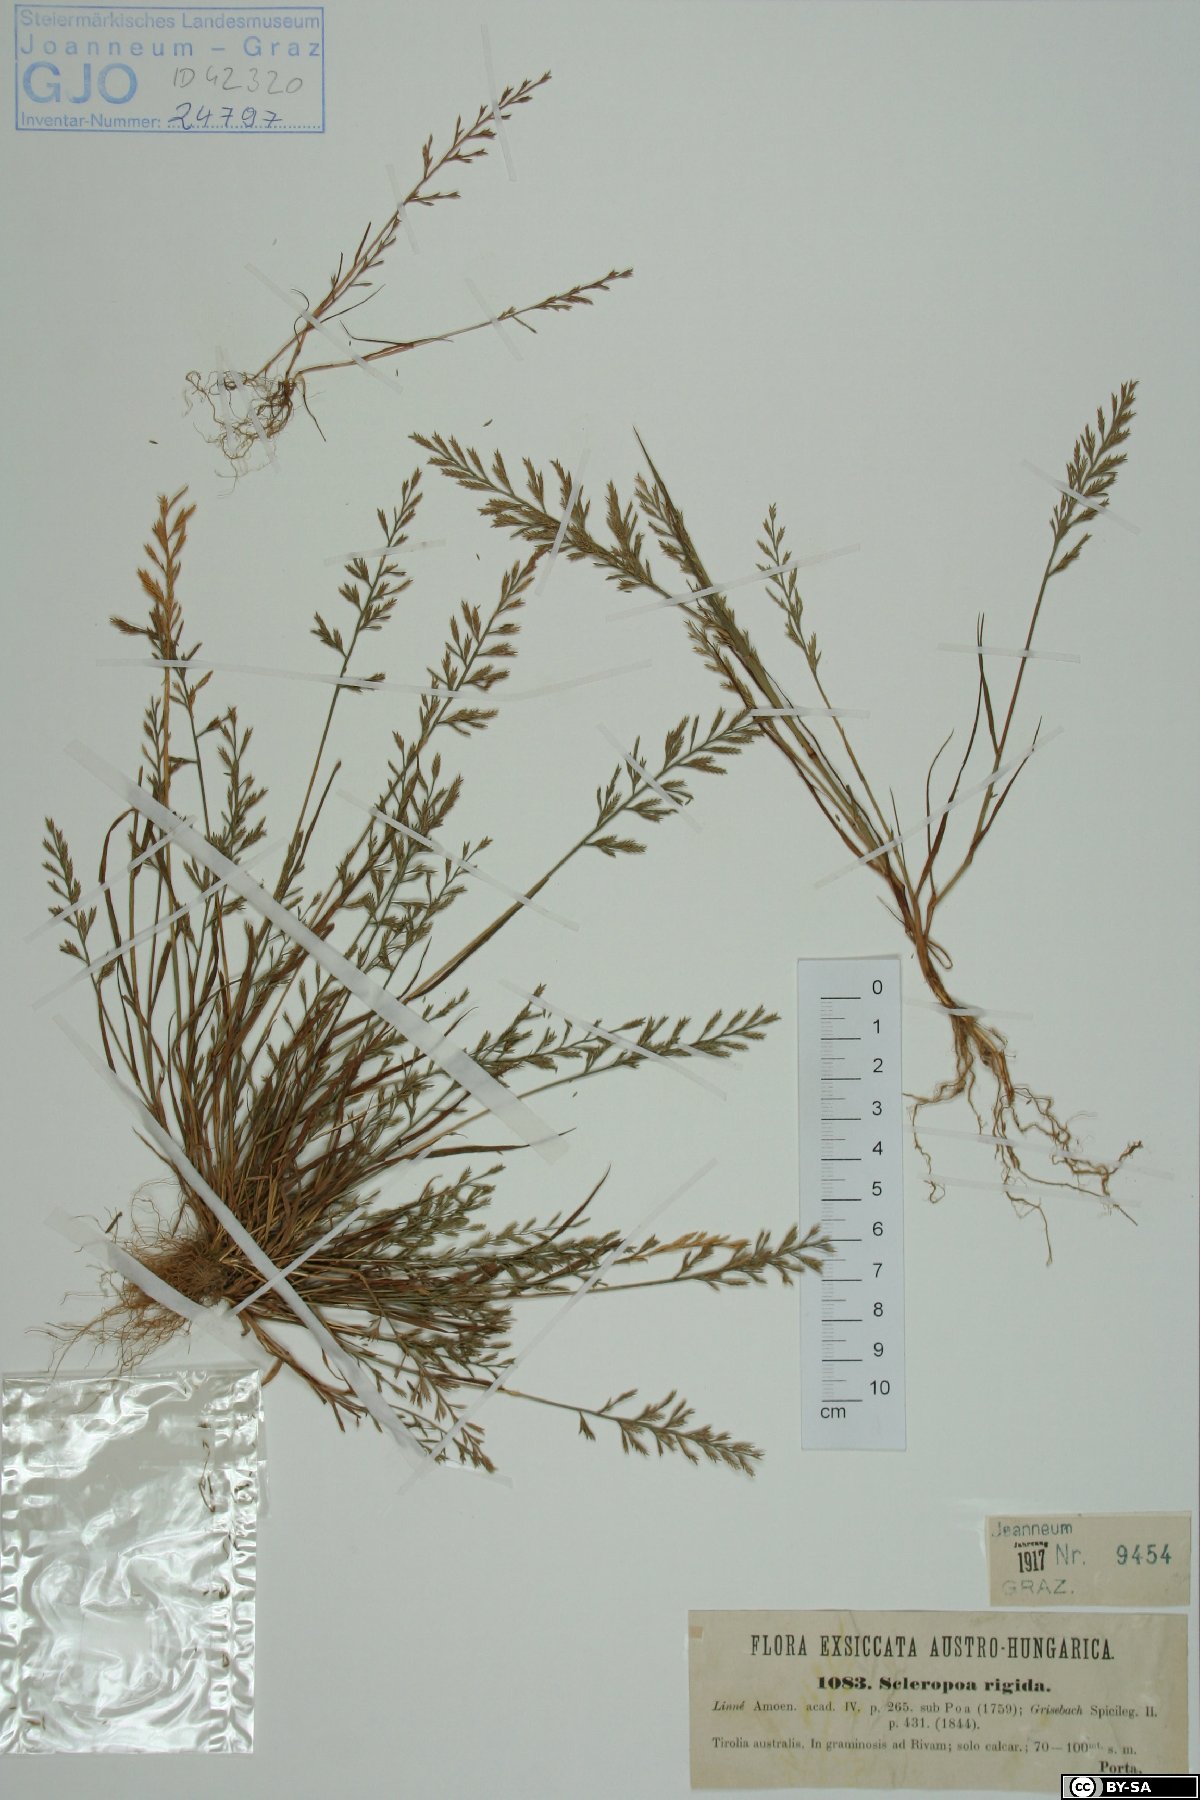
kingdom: Plantae
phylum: Tracheophyta
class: Liliopsida
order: Poales
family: Poaceae
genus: Catapodium
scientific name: Catapodium rigidum
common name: Fern-grass
